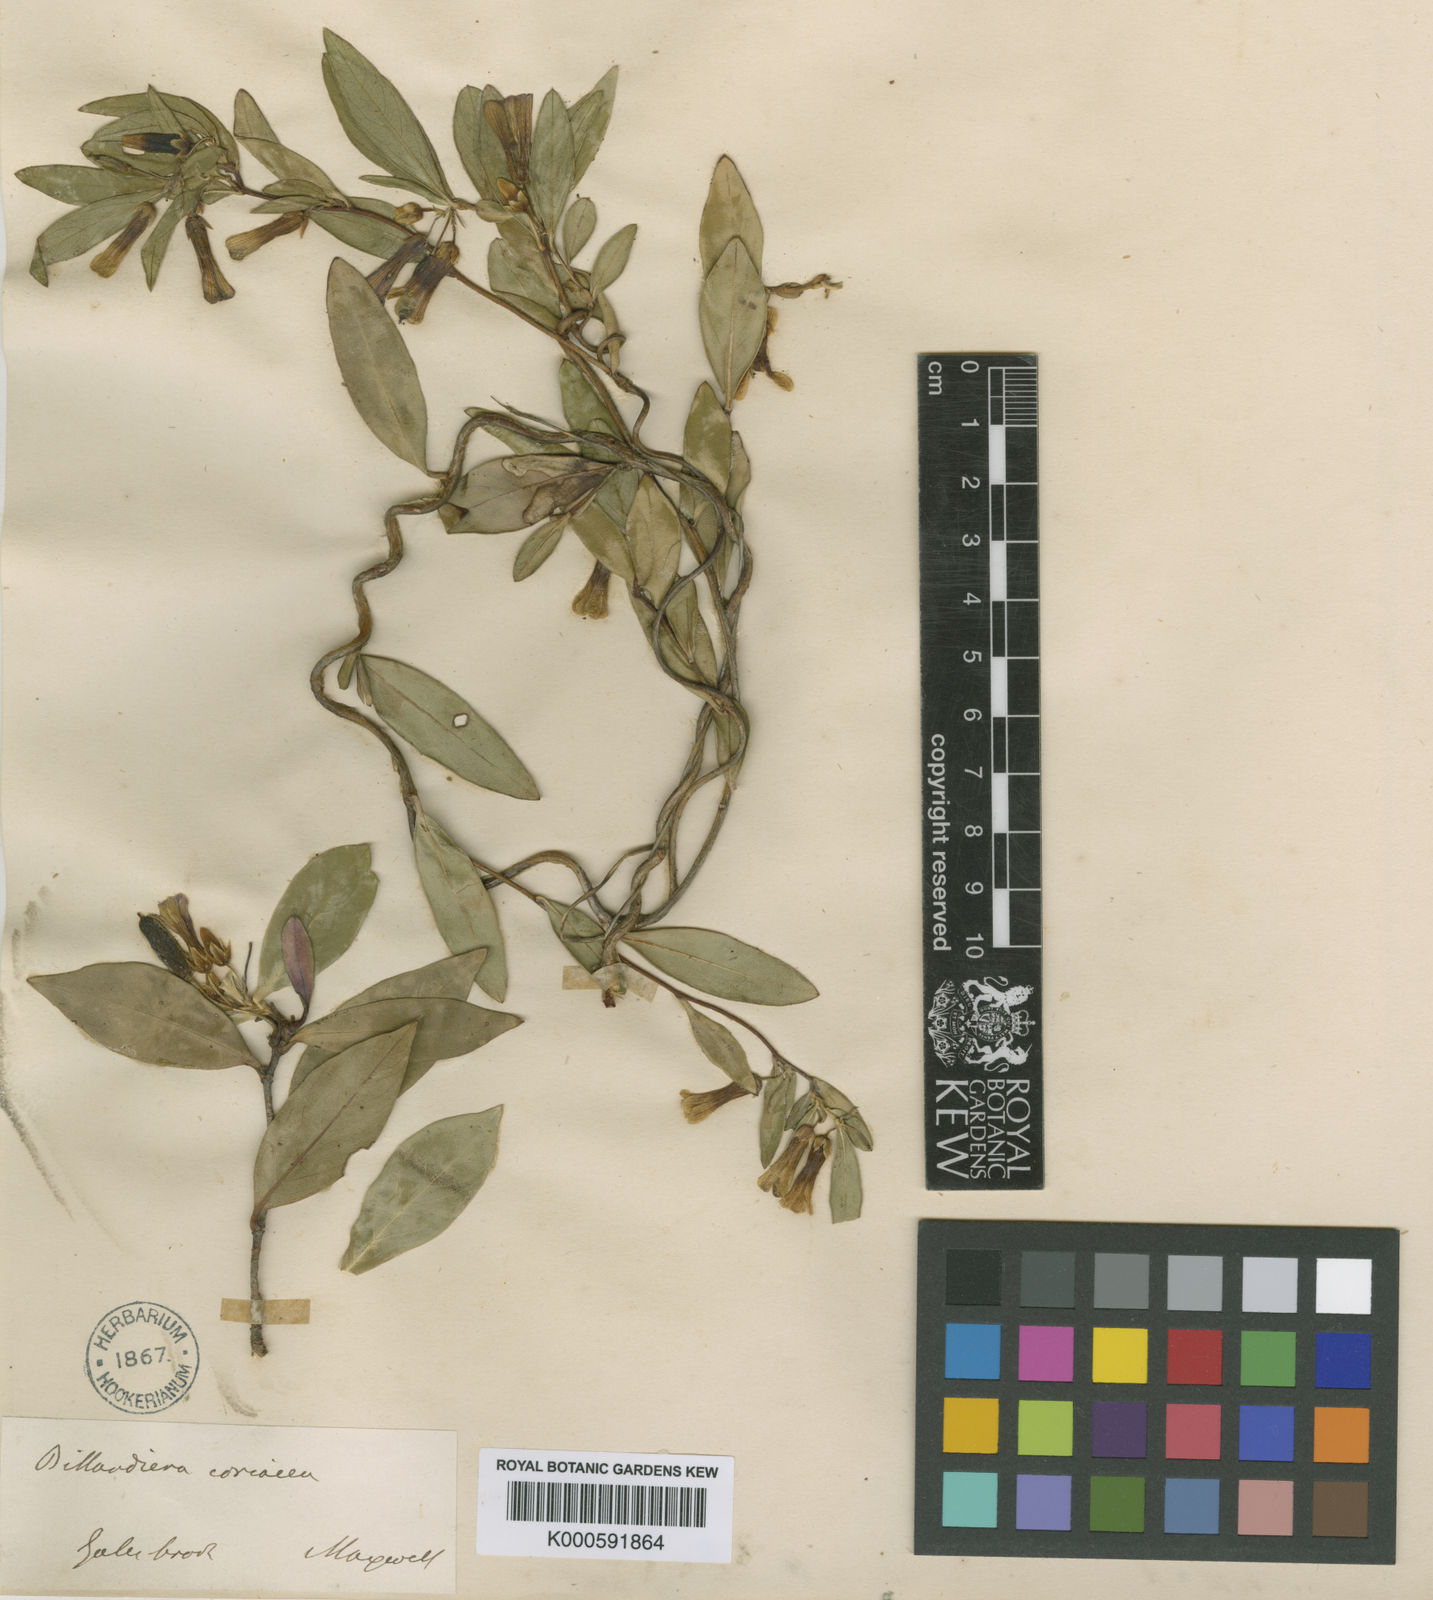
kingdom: Plantae
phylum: Tracheophyta
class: Magnoliopsida
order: Apiales
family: Pittosporaceae
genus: Billardiera
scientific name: Billardiera coriacea
